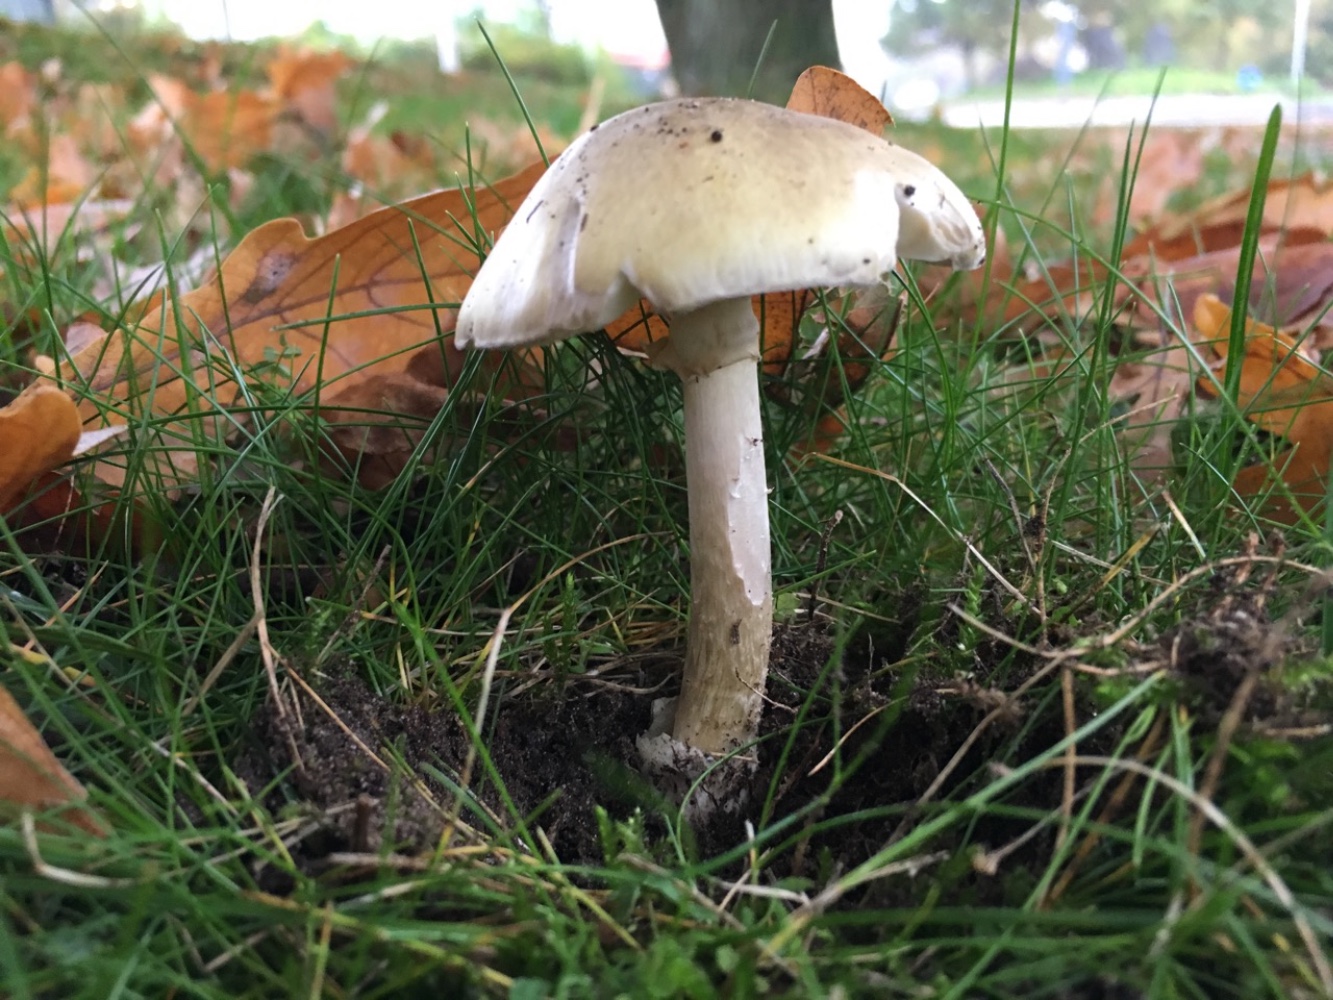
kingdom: Fungi
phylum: Basidiomycota
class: Agaricomycetes
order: Agaricales
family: Amanitaceae
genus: Amanita
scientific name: Amanita phalloides
